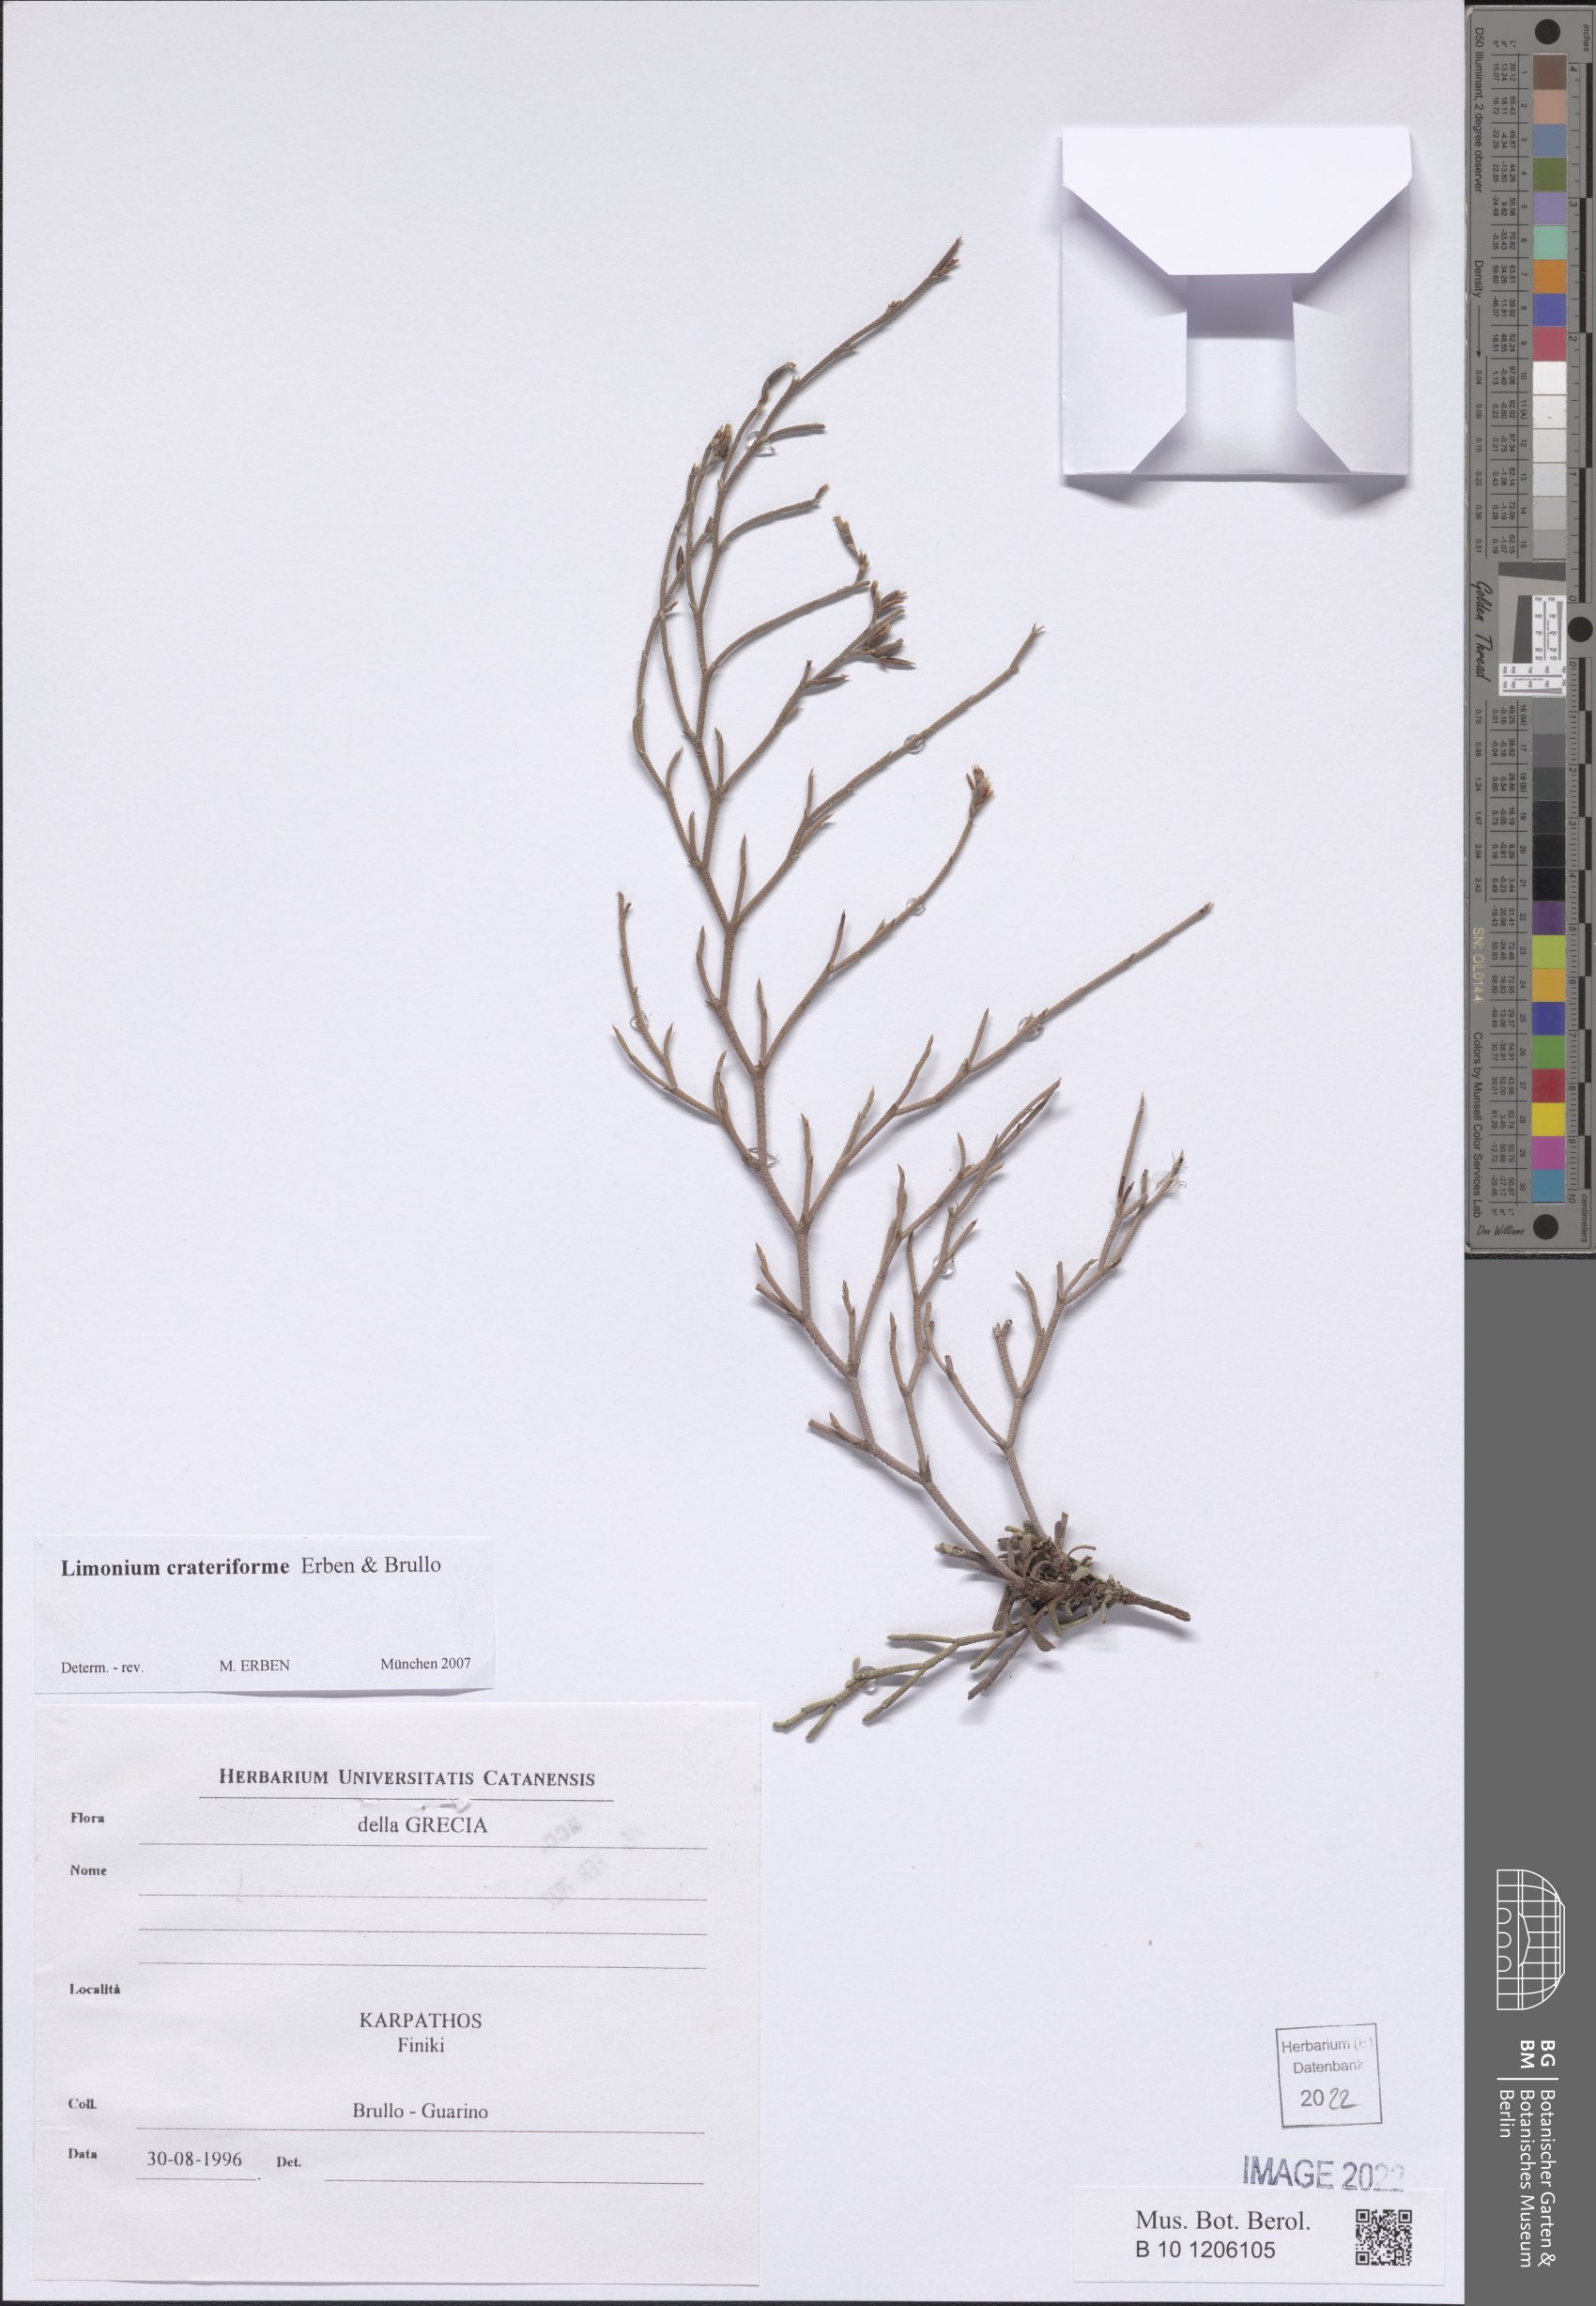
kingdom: Plantae
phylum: Tracheophyta
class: Magnoliopsida
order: Caryophyllales
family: Plumbaginaceae
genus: Limonium
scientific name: Limonium crateriforme
